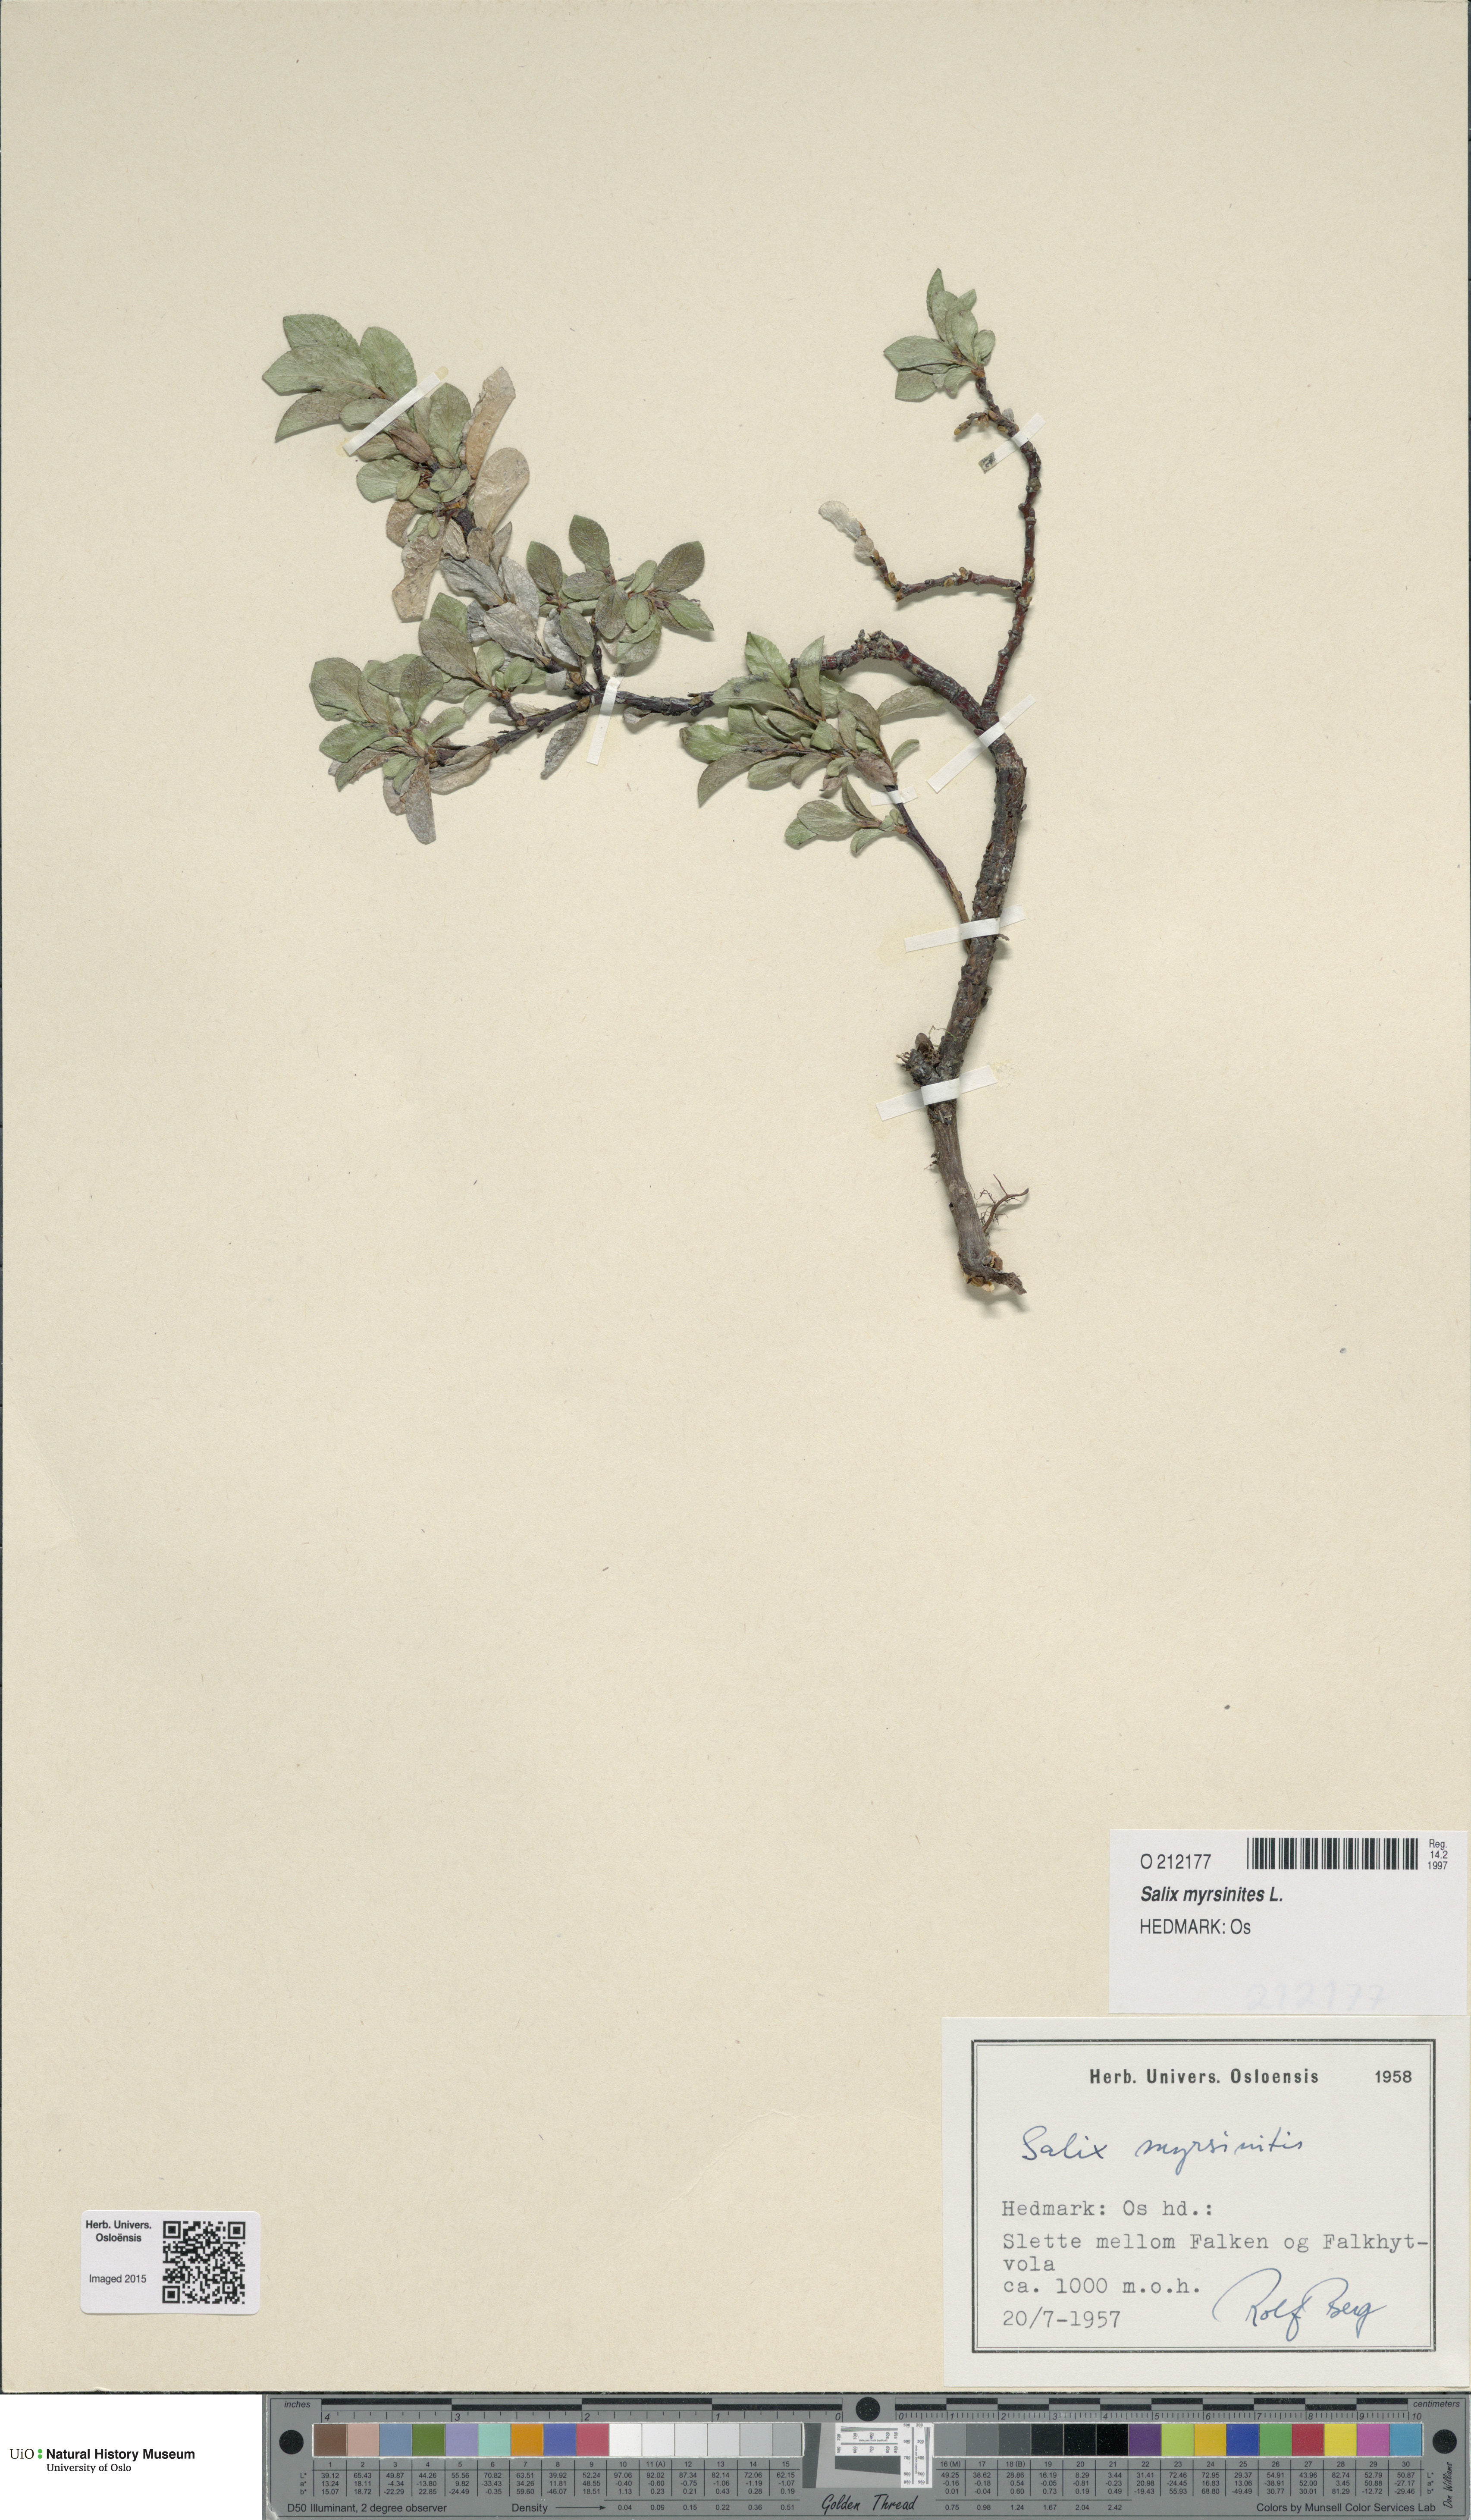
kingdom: Plantae
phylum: Tracheophyta
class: Magnoliopsida
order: Malpighiales
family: Salicaceae
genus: Salix
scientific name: Salix myrsinites
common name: Myrtle willow
